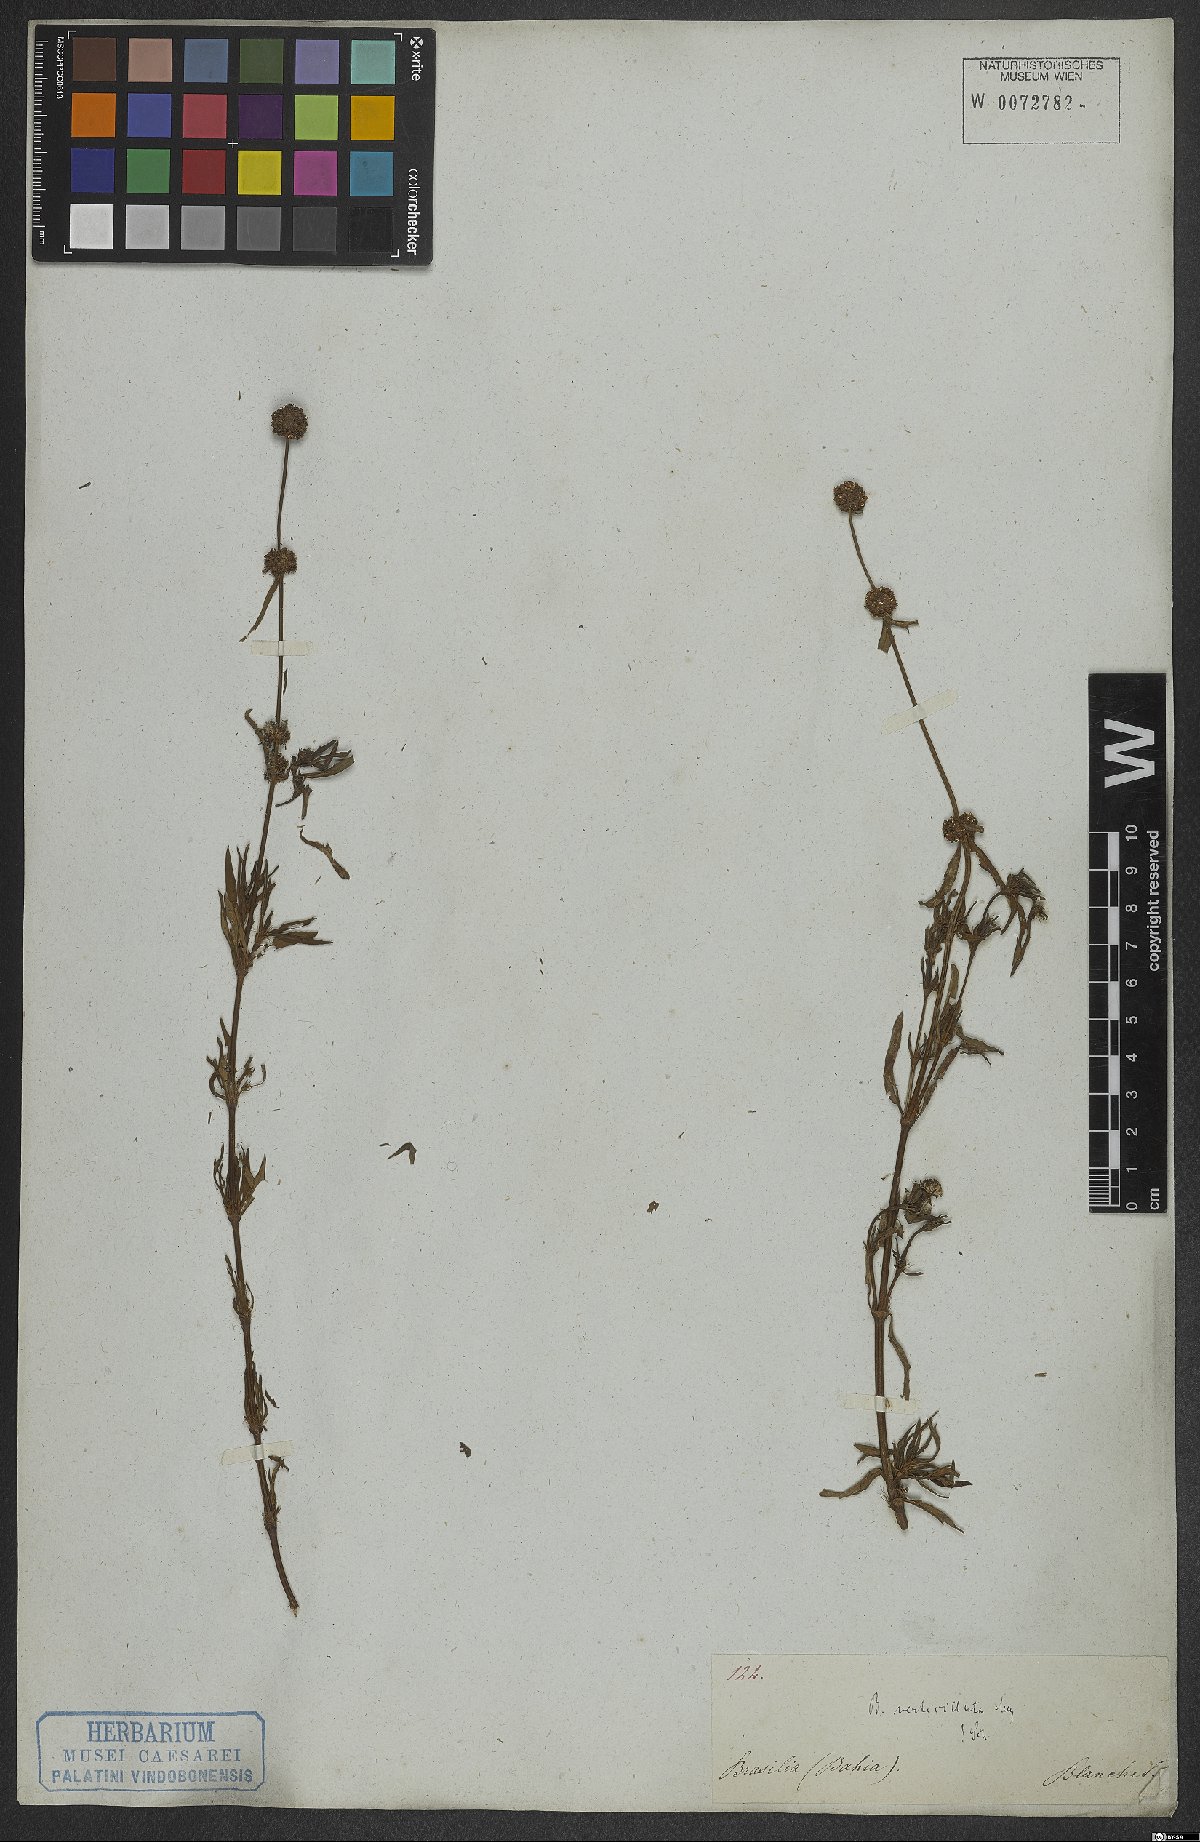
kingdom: Plantae
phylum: Tracheophyta
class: Magnoliopsida
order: Gentianales
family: Rubiaceae
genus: Spermacoce
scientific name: Spermacoce verticillata
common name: Shrubby false buttonweed
